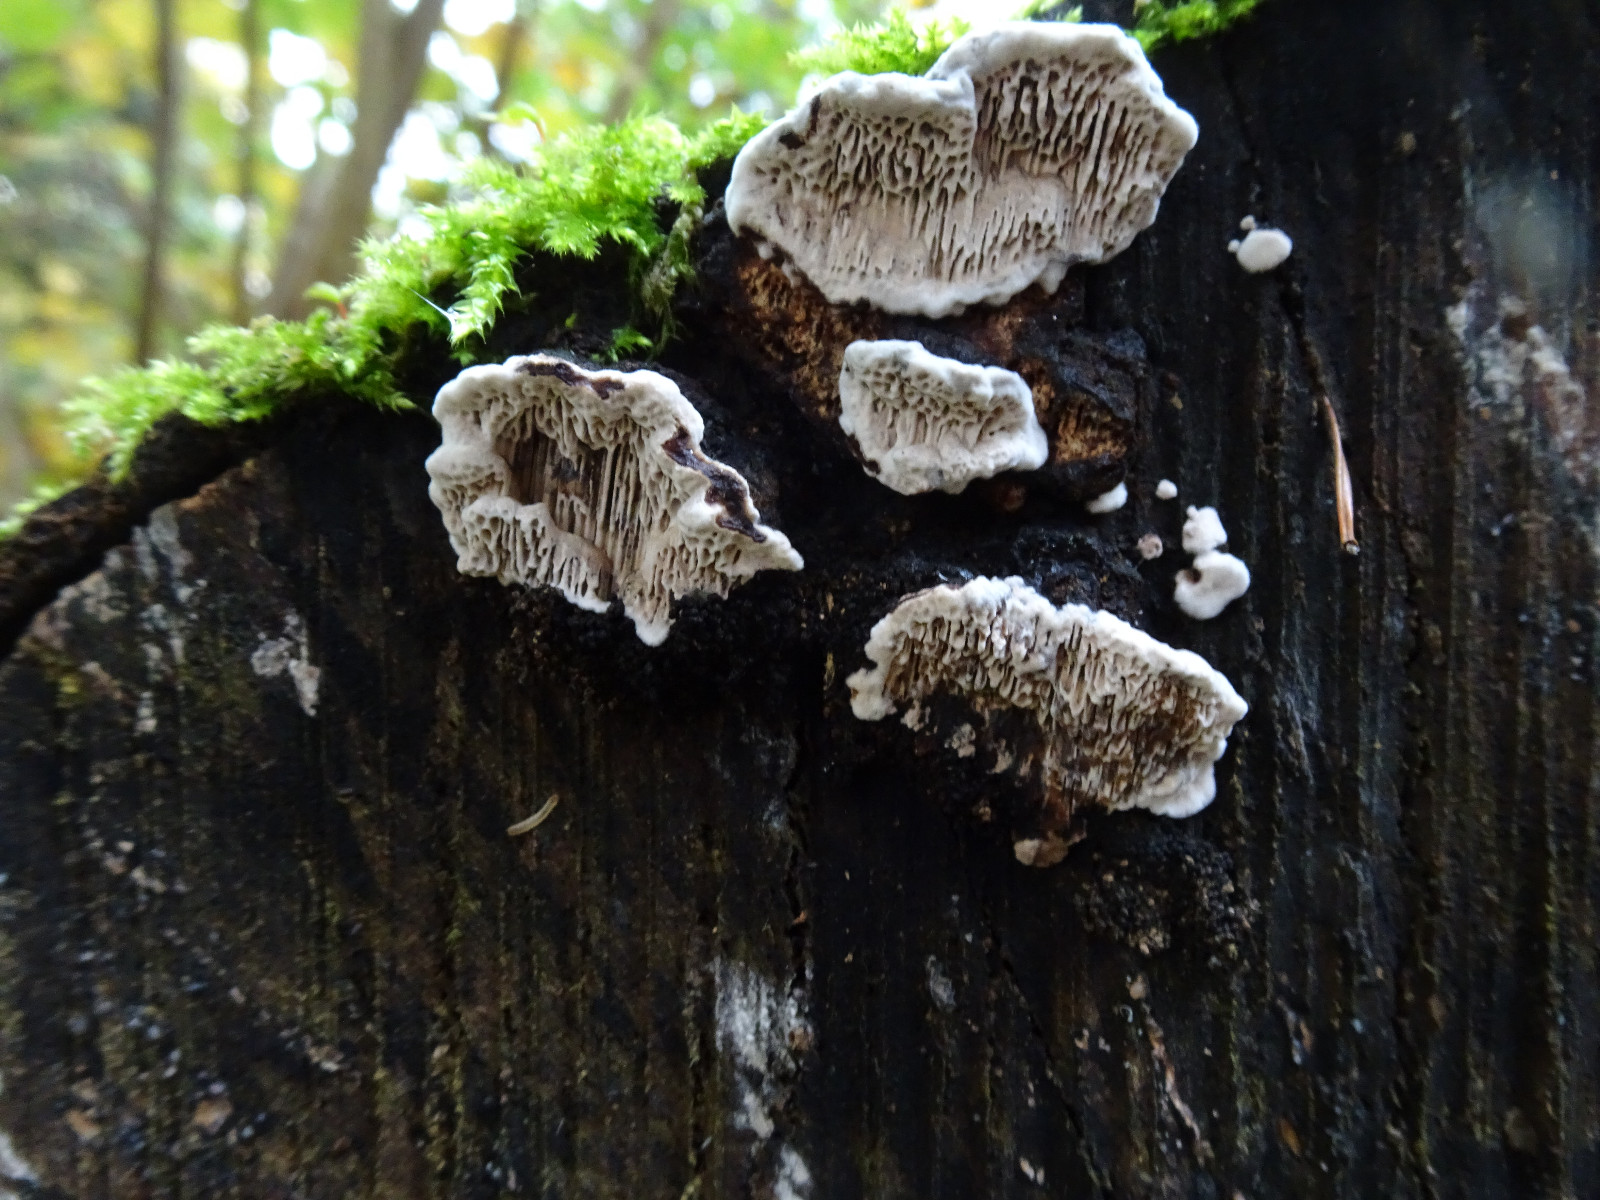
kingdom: Fungi
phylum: Basidiomycota
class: Agaricomycetes
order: Polyporales
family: Polyporaceae
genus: Podofomes
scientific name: Podofomes mollis
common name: blød begporesvamp
